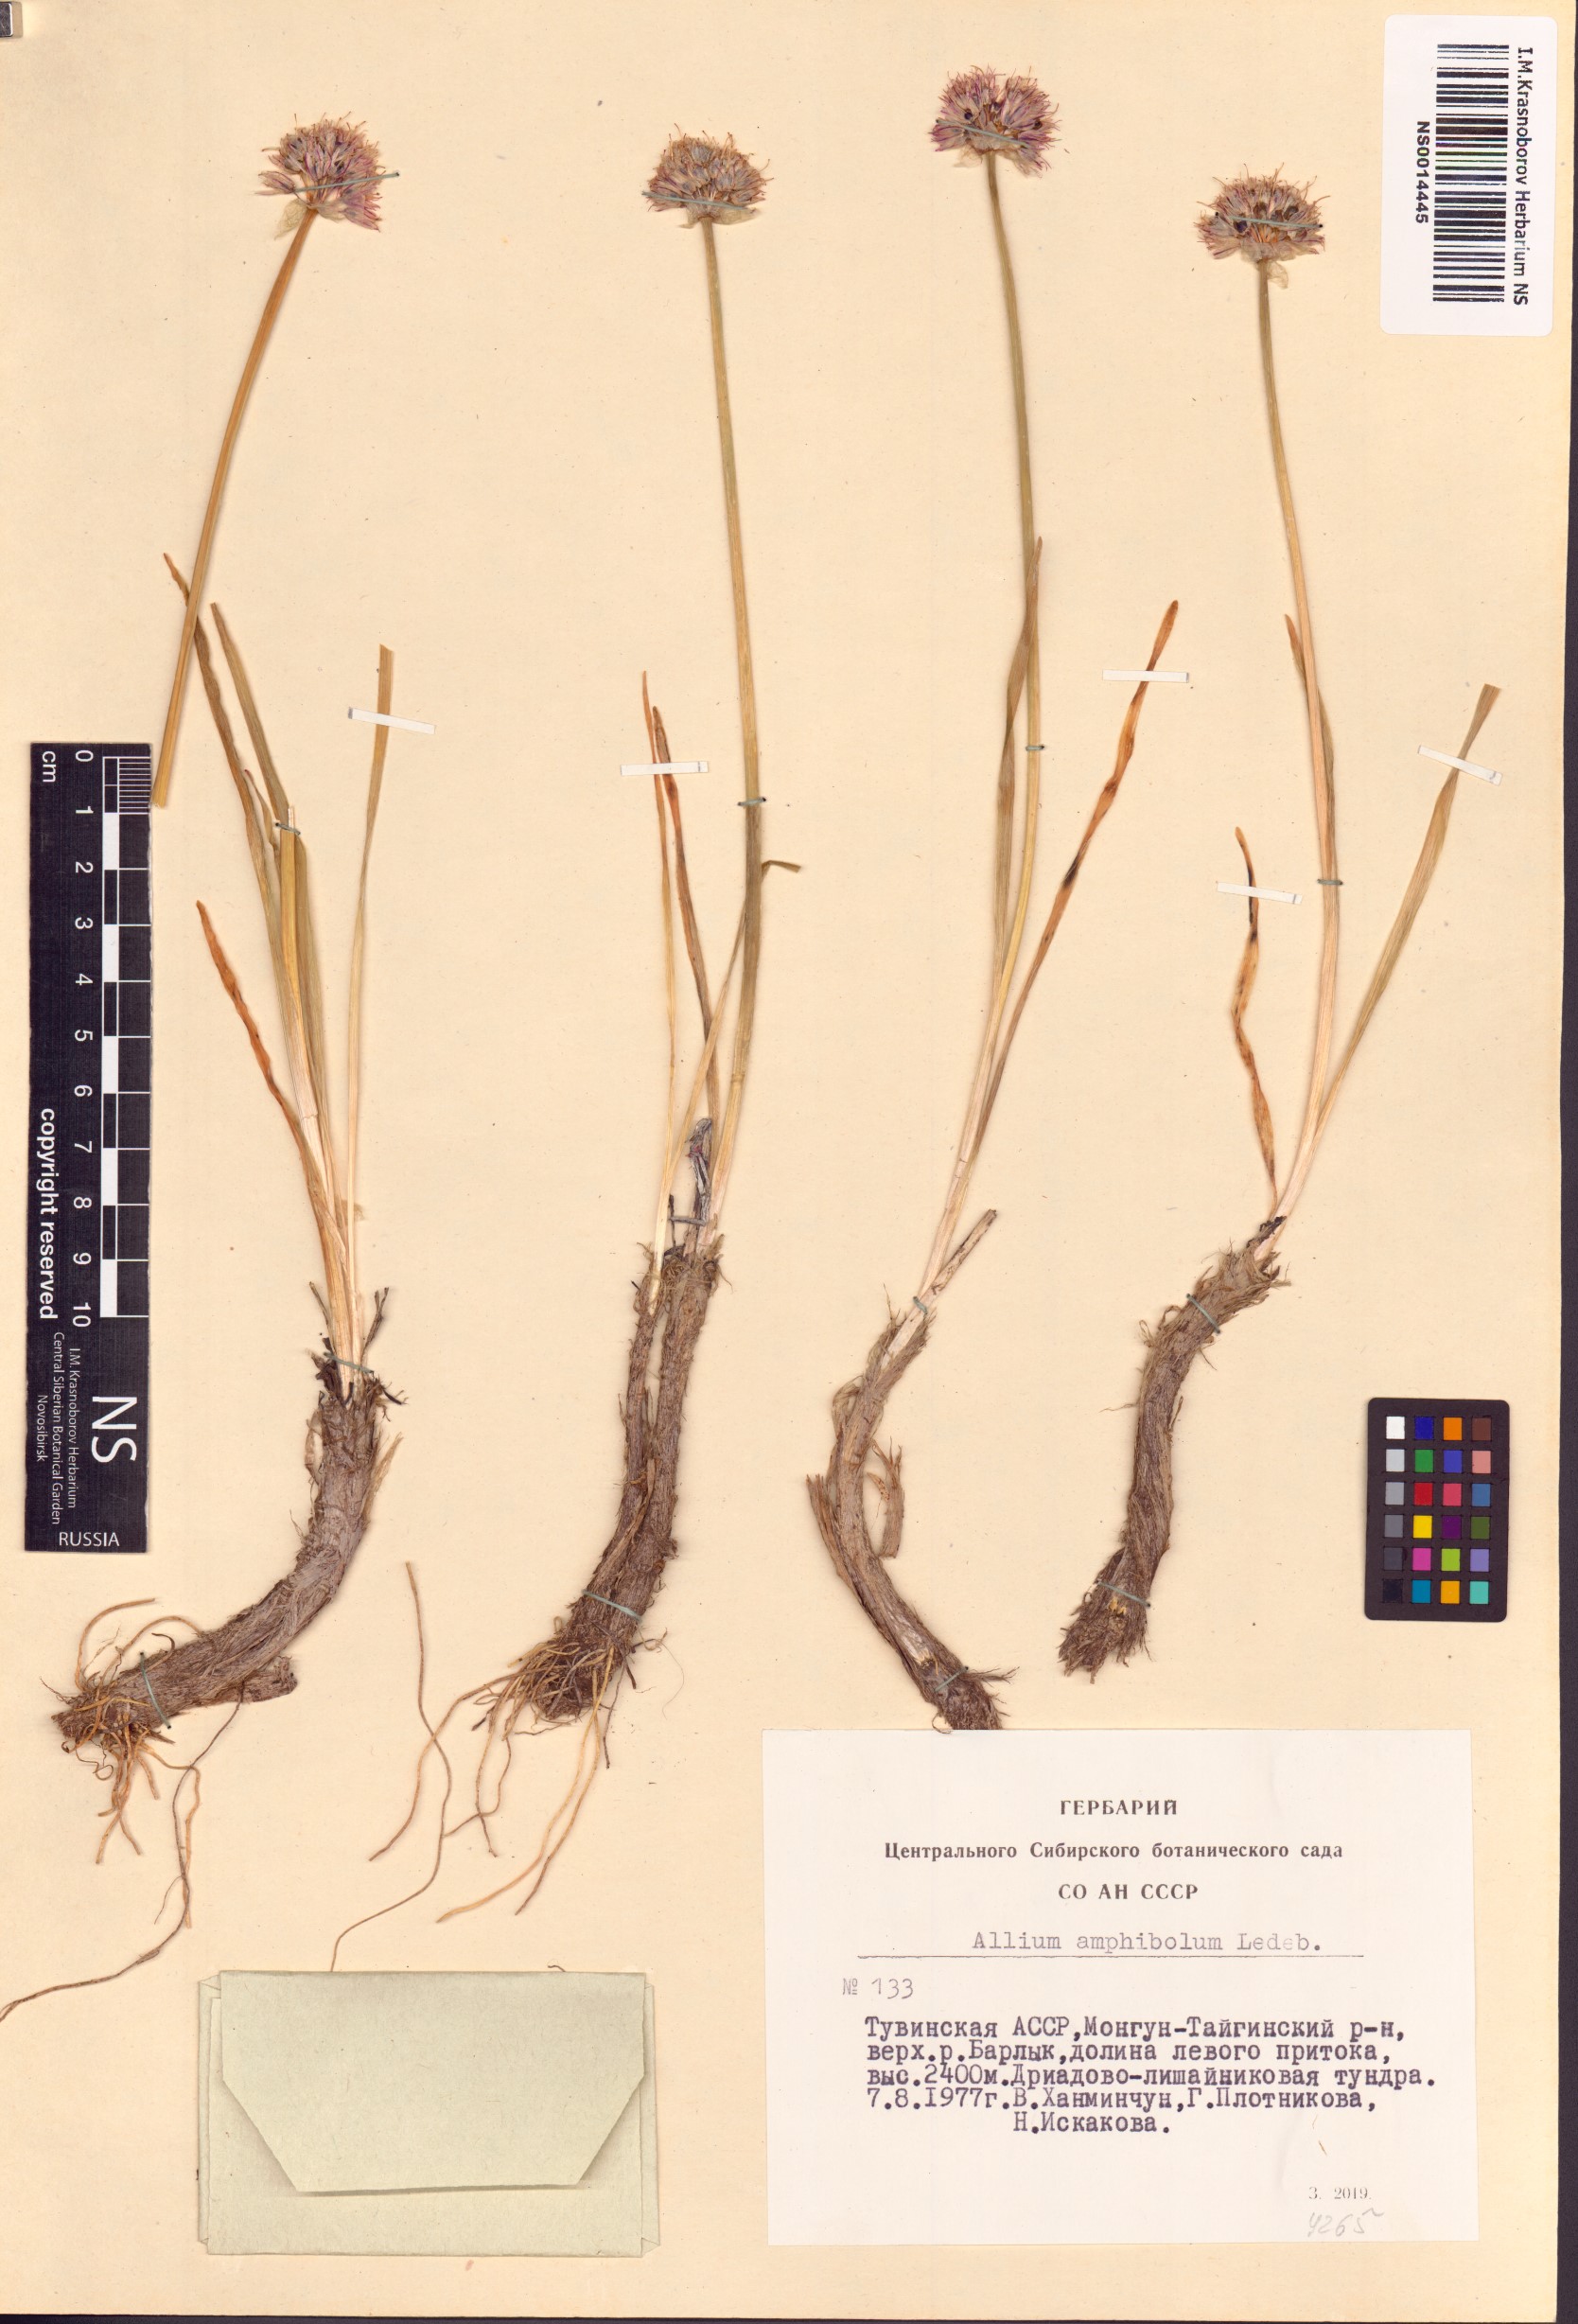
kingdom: Plantae
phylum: Tracheophyta
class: Liliopsida
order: Asparagales
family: Amaryllidaceae
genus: Allium
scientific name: Allium amphibolum
